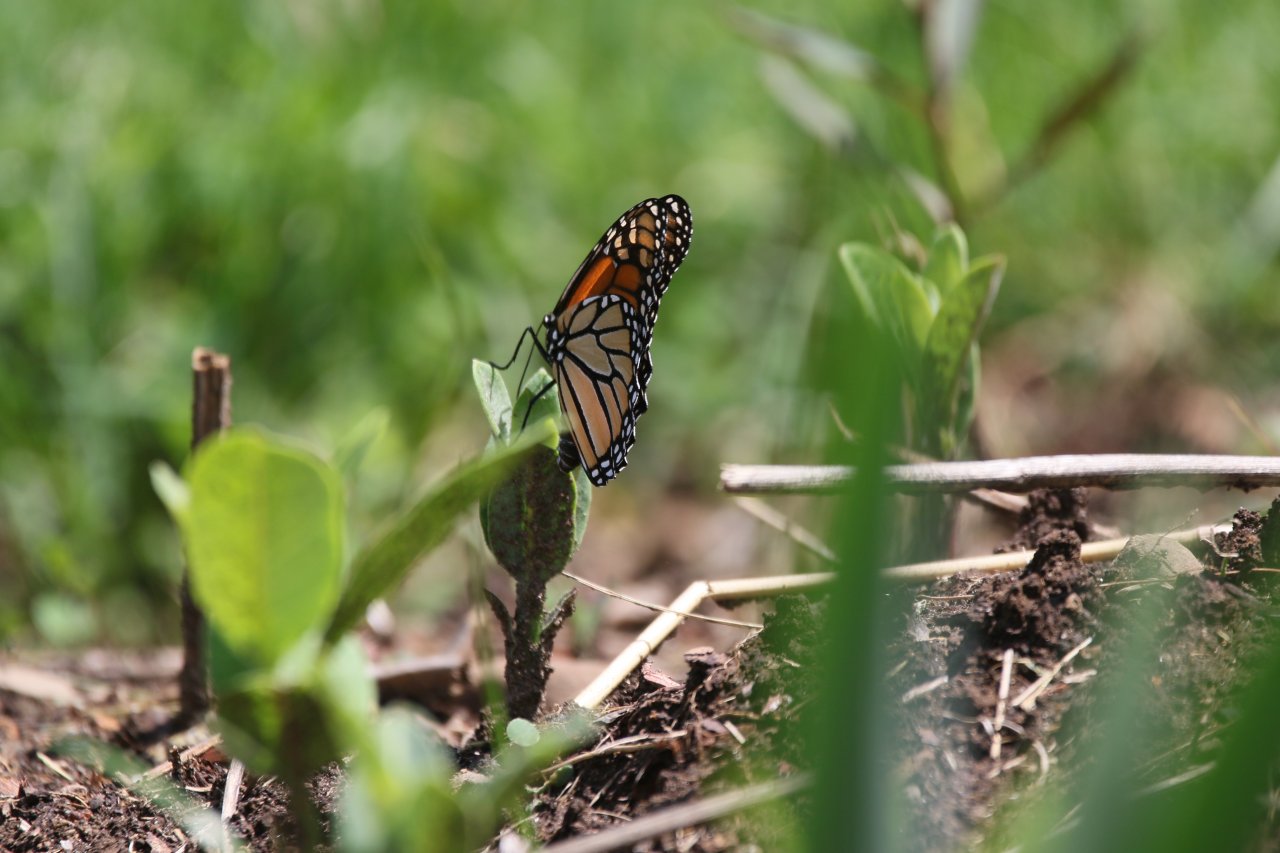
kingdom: Animalia
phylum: Arthropoda
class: Insecta
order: Lepidoptera
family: Nymphalidae
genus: Danaus
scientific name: Danaus plexippus
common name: Monarch
